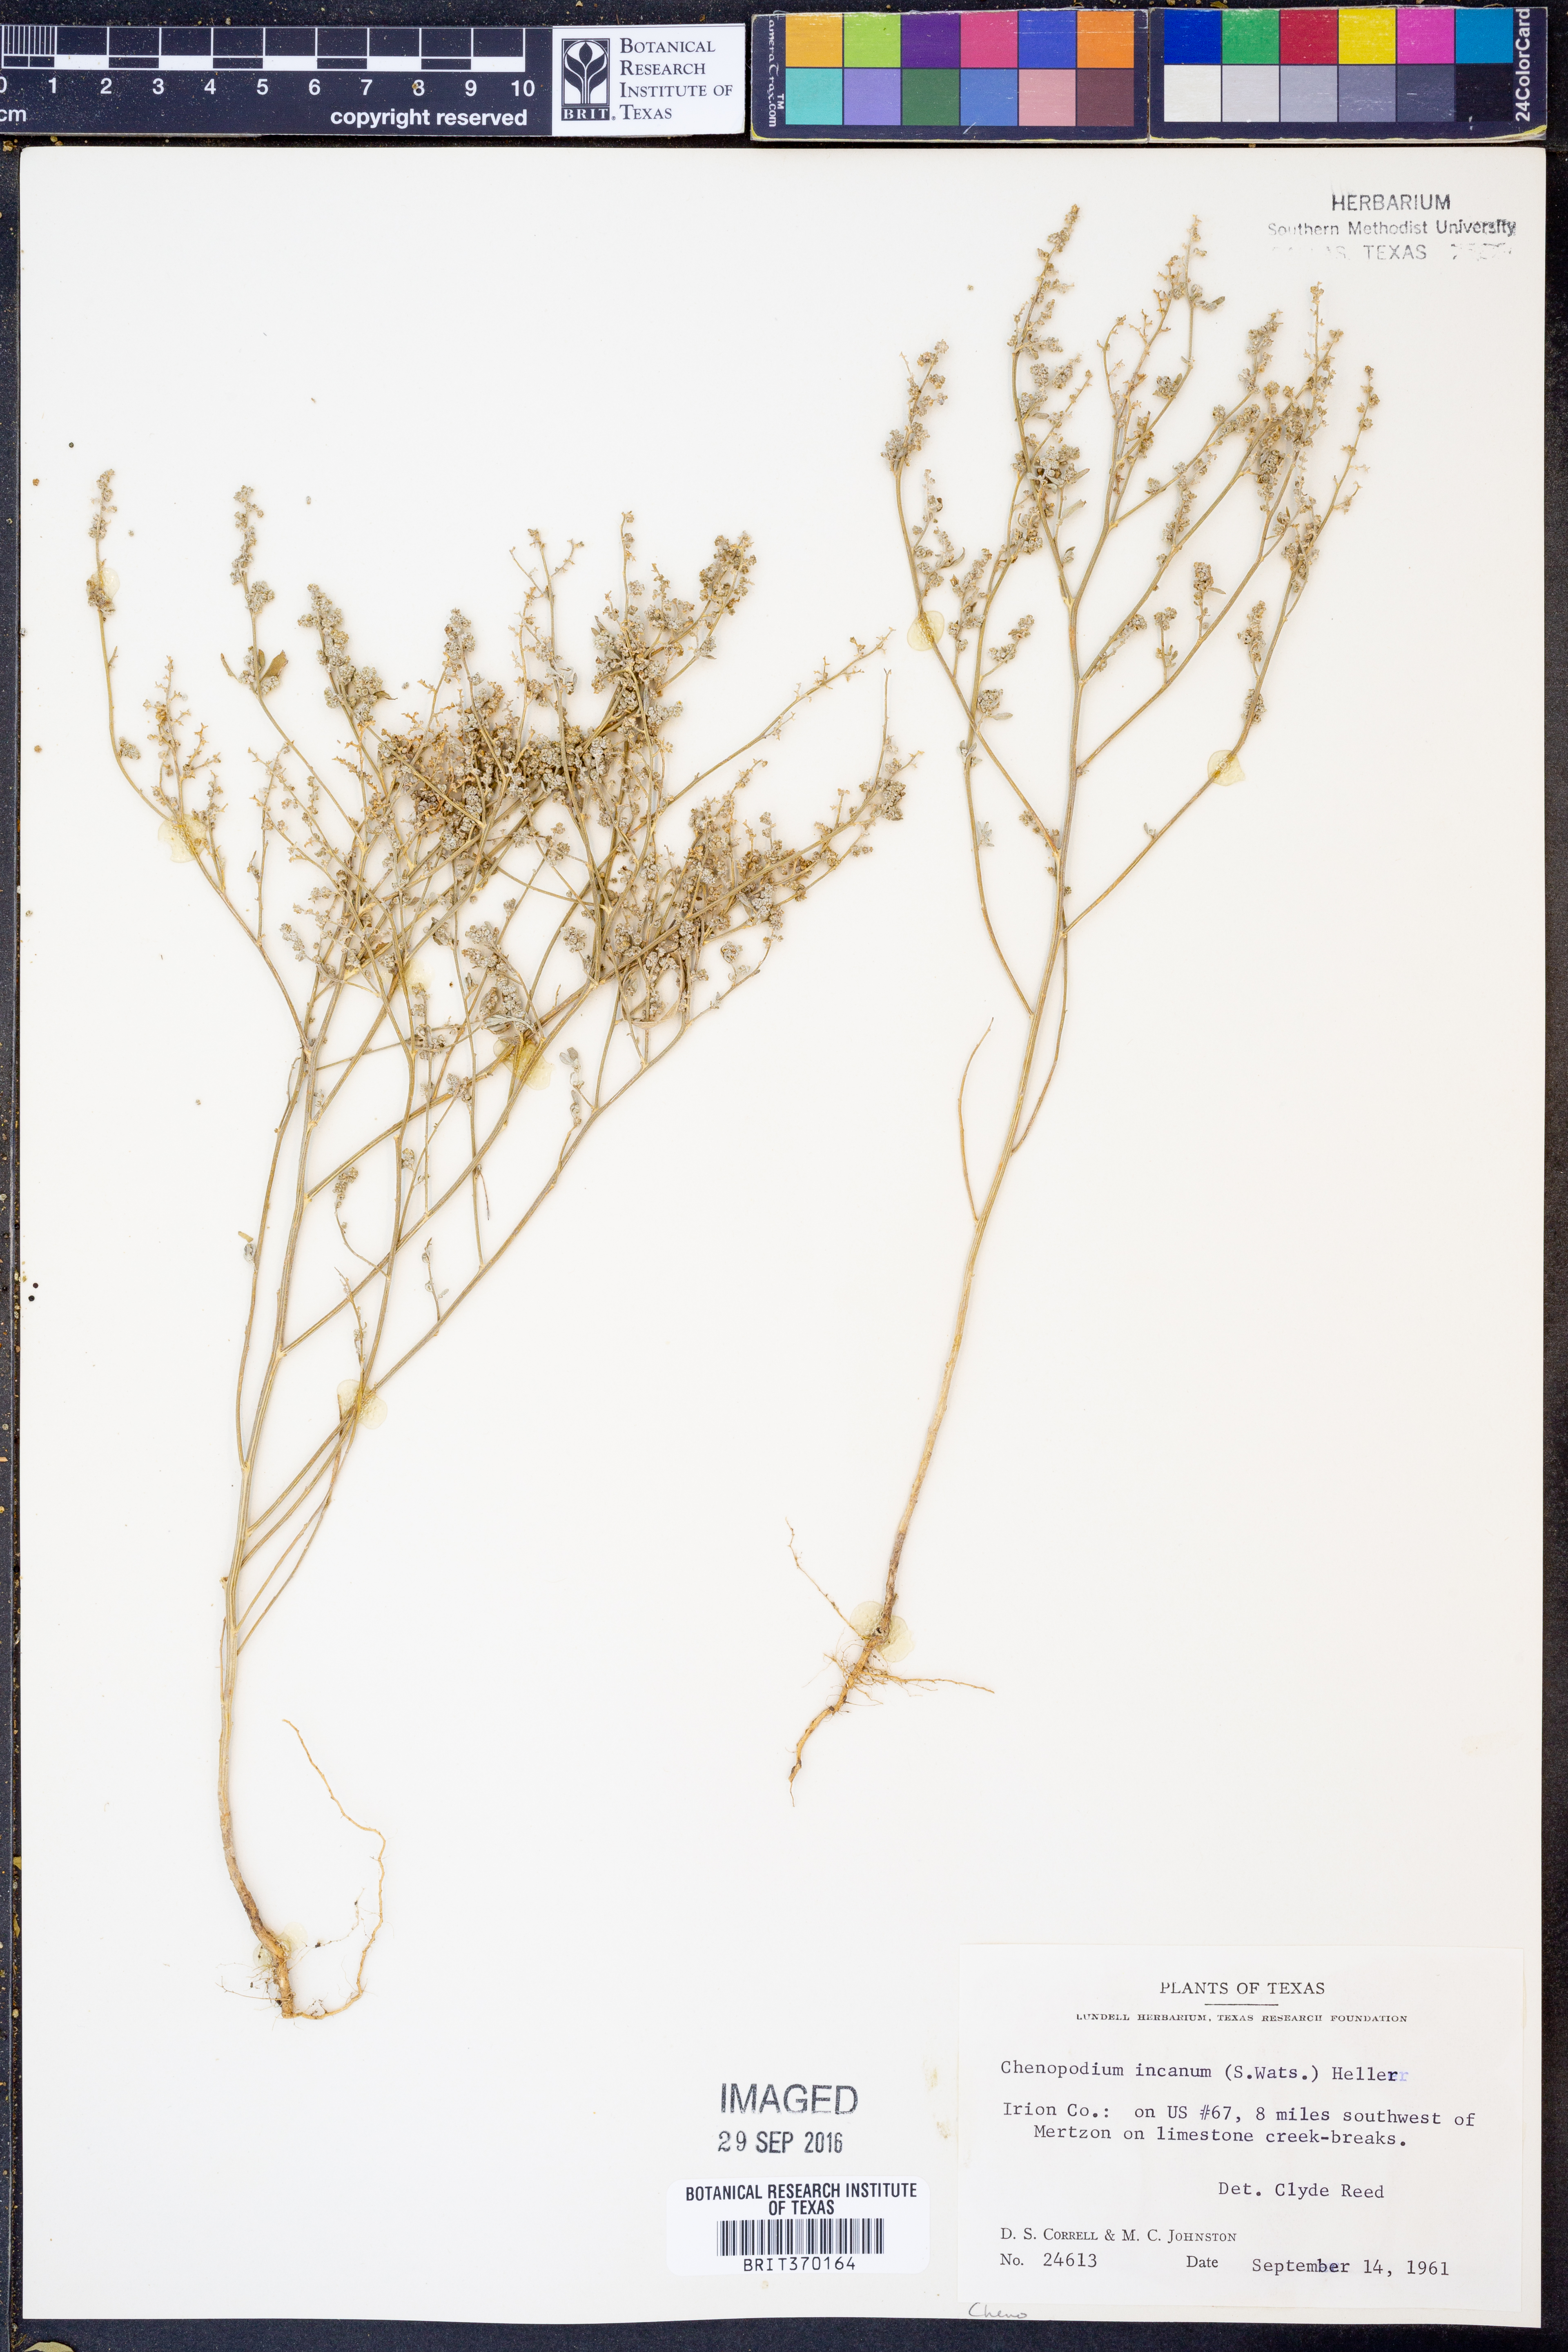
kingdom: Plantae
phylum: Tracheophyta
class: Magnoliopsida
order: Caryophyllales
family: Amaranthaceae
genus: Chenopodium
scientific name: Chenopodium incanum
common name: Hoary goosefoot
